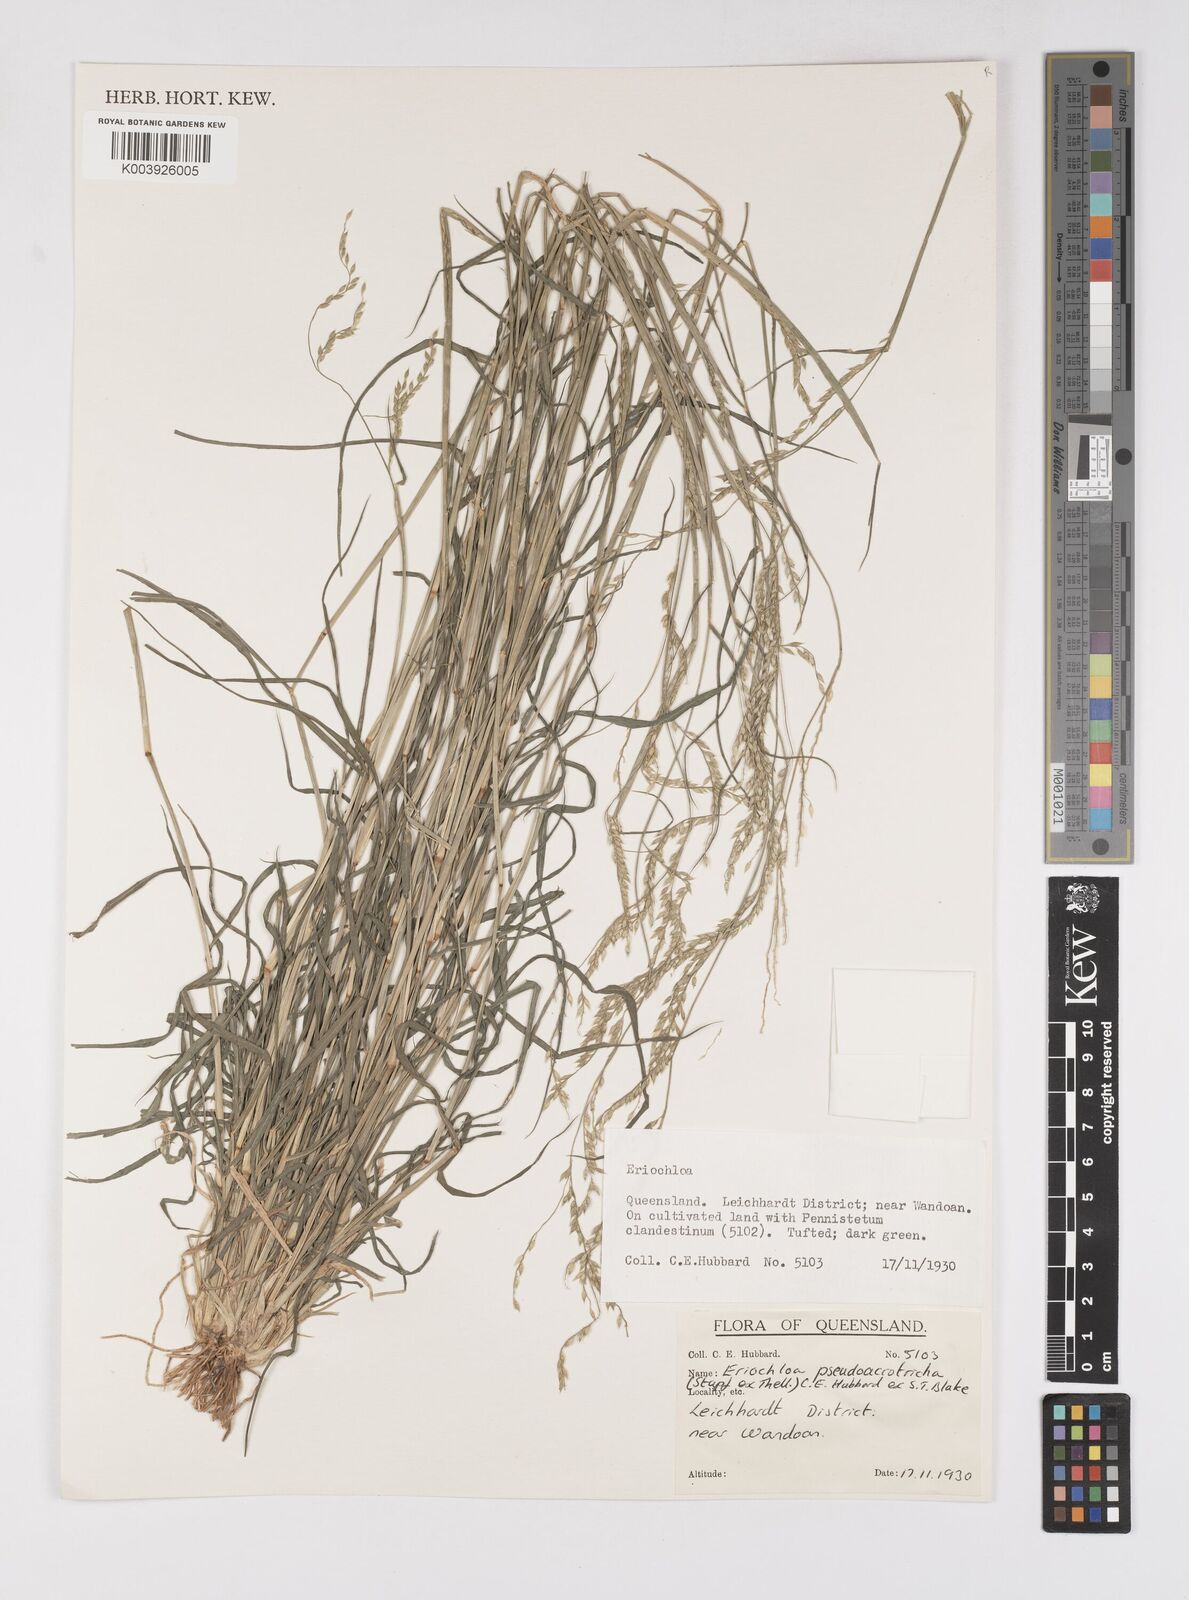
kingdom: Plantae
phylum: Tracheophyta
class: Liliopsida
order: Poales
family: Poaceae
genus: Eriochloa
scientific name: Eriochloa pseudoacrotricha
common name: Perennial cup-grass
